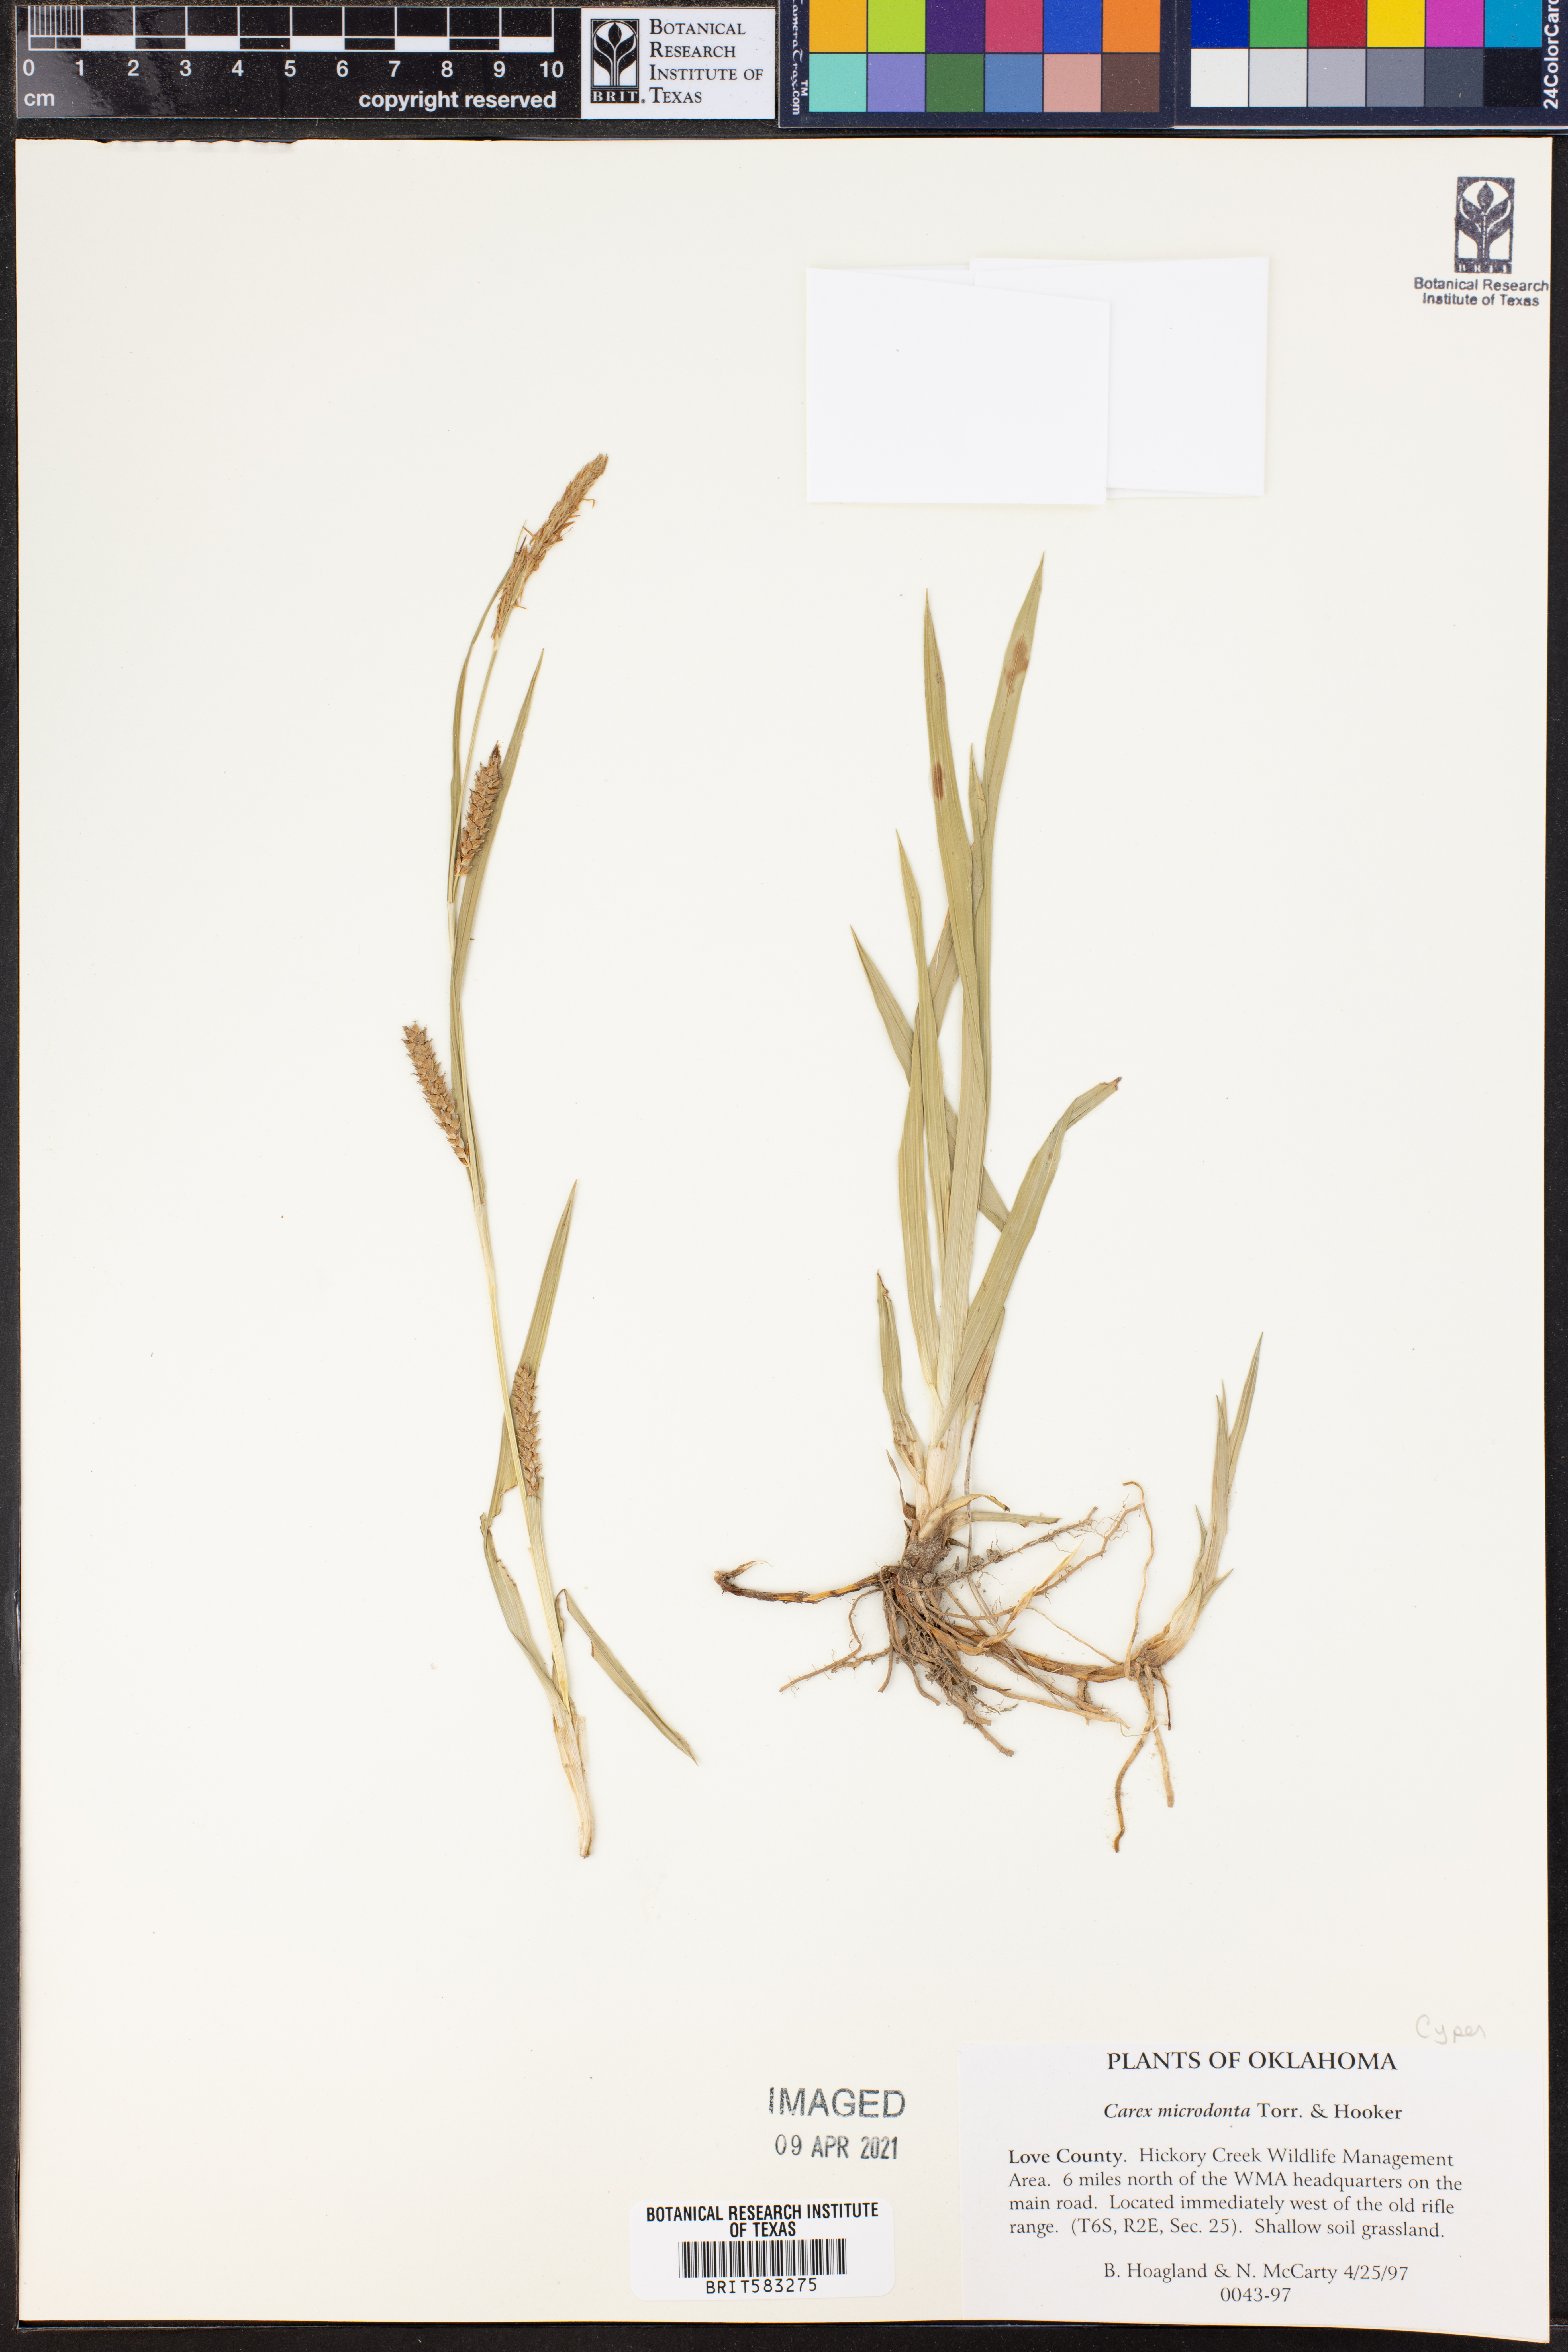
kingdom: Plantae
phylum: Tracheophyta
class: Liliopsida
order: Poales
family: Cyperaceae
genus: Carex
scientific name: Carex microdonta
